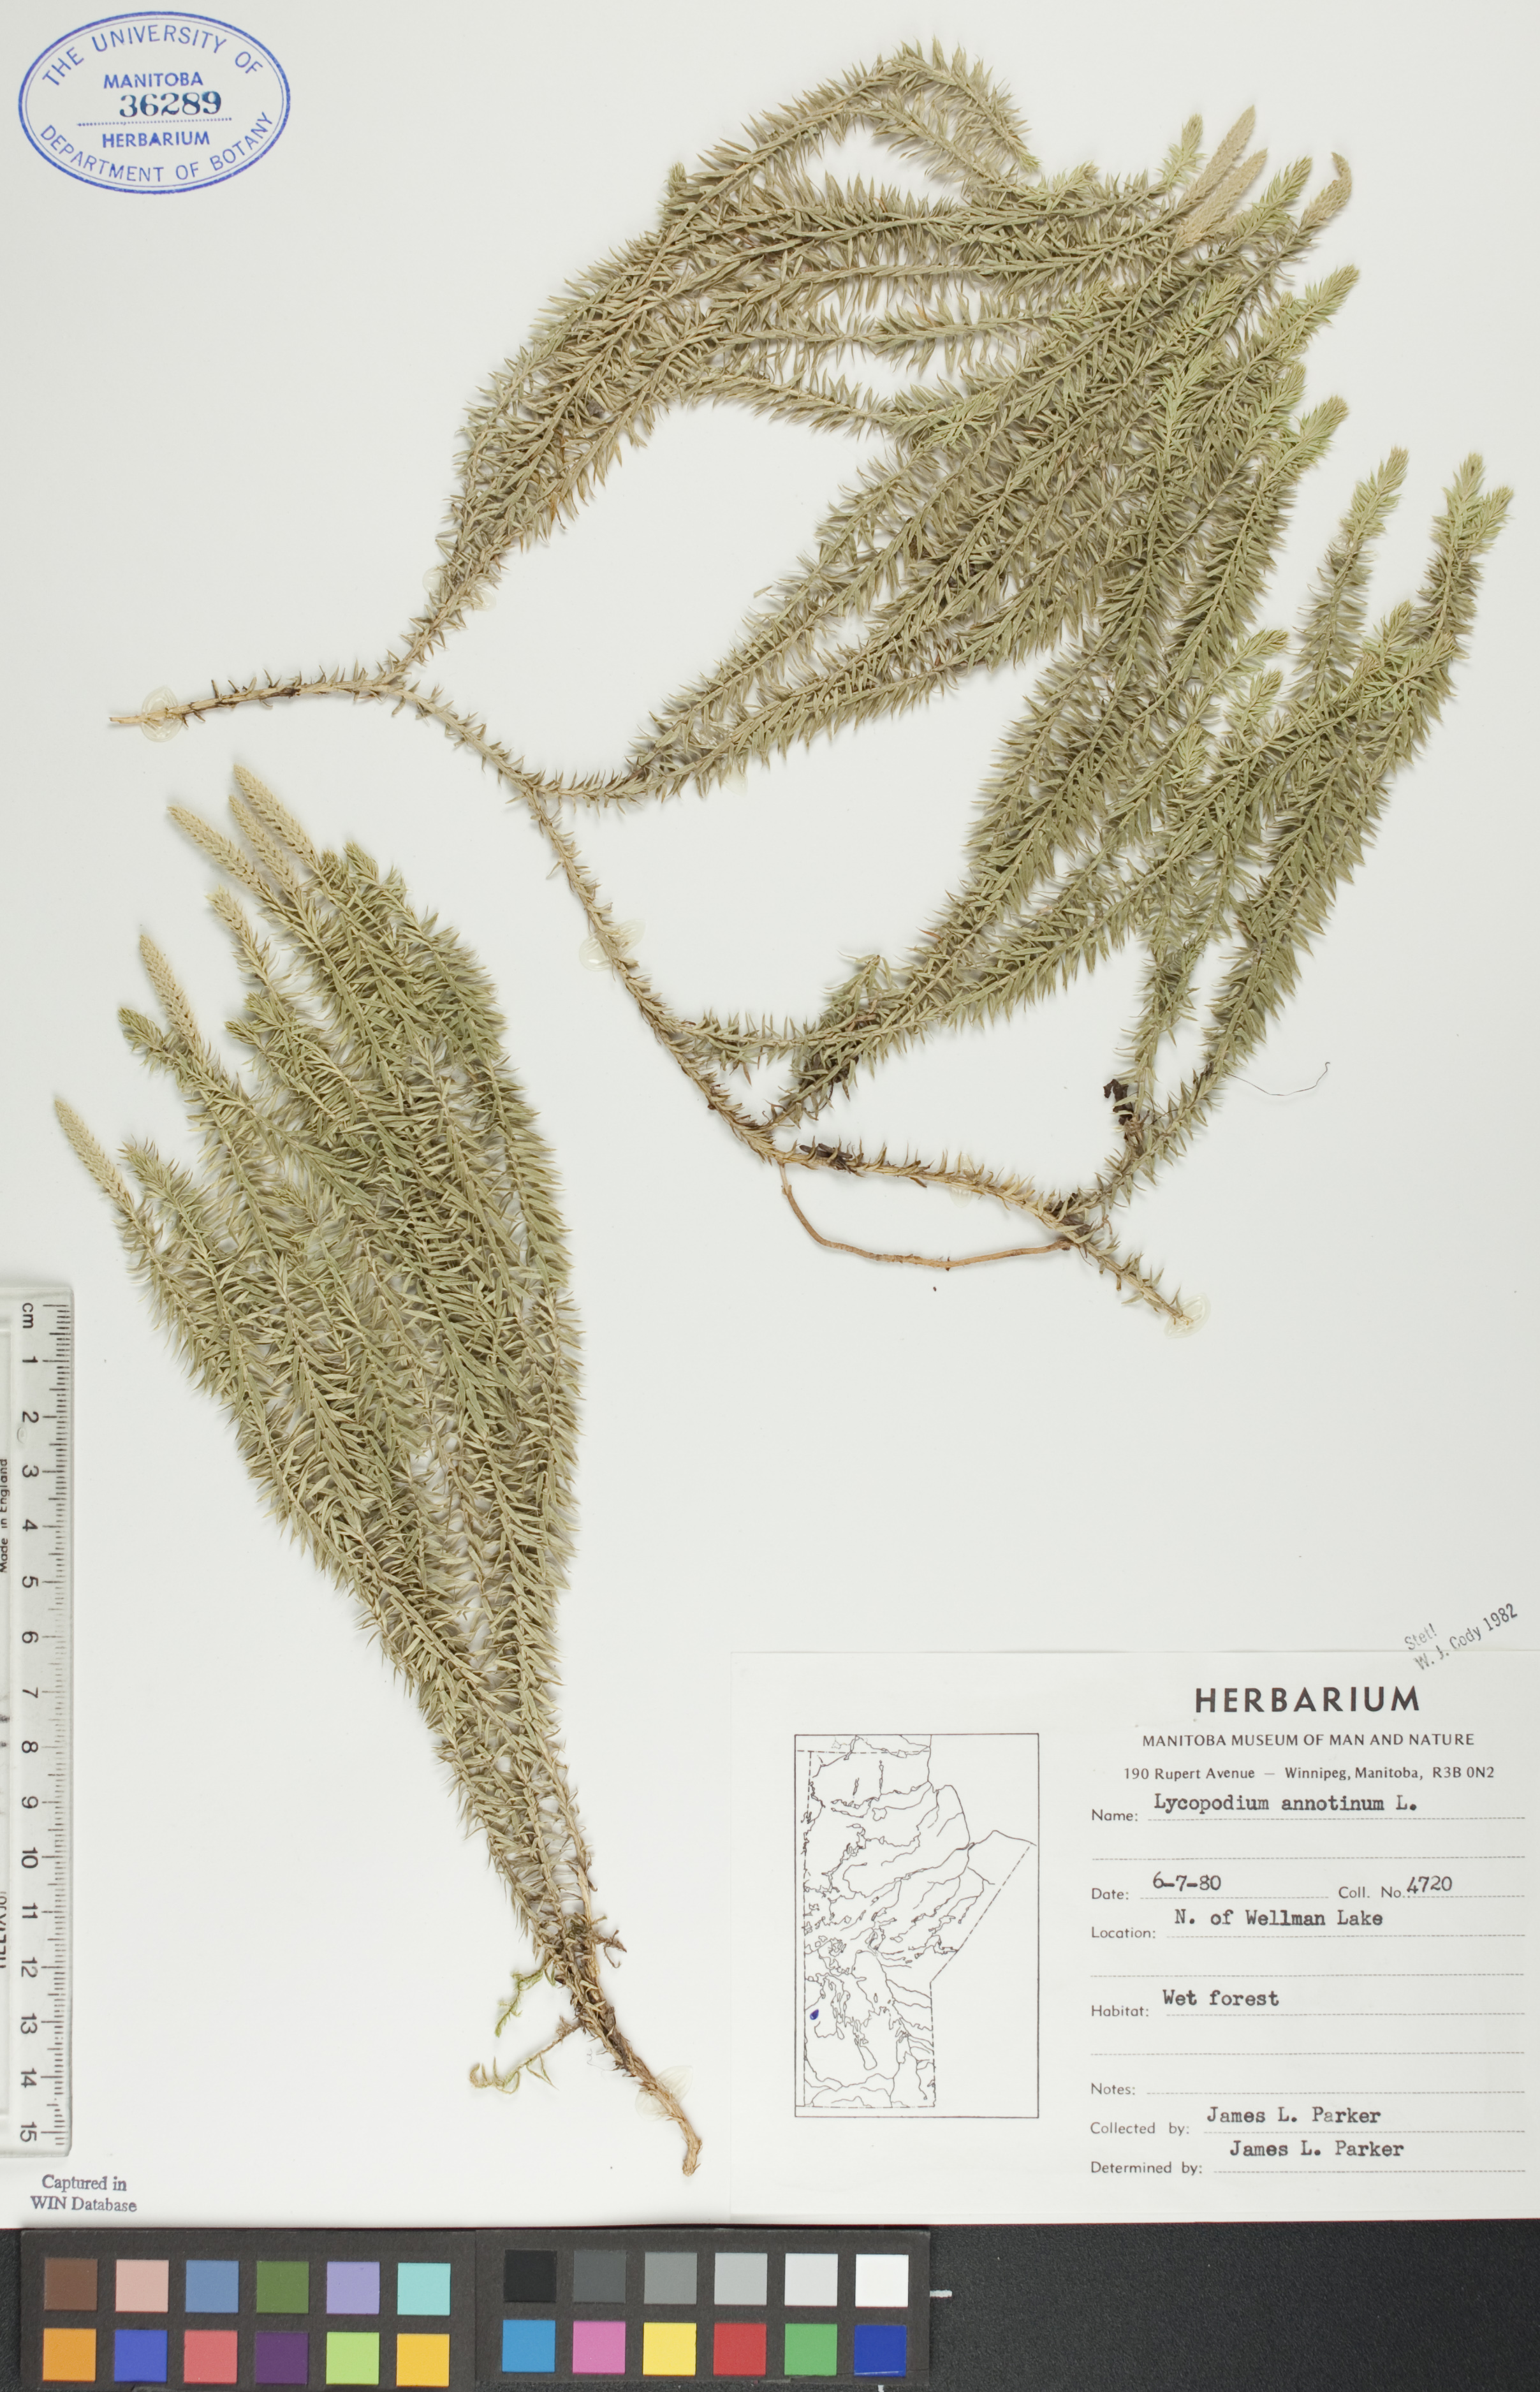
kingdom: Plantae
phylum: Tracheophyta
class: Lycopodiopsida
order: Lycopodiales
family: Lycopodiaceae
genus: Spinulum
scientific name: Spinulum annotinum
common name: Interrupted club-moss
